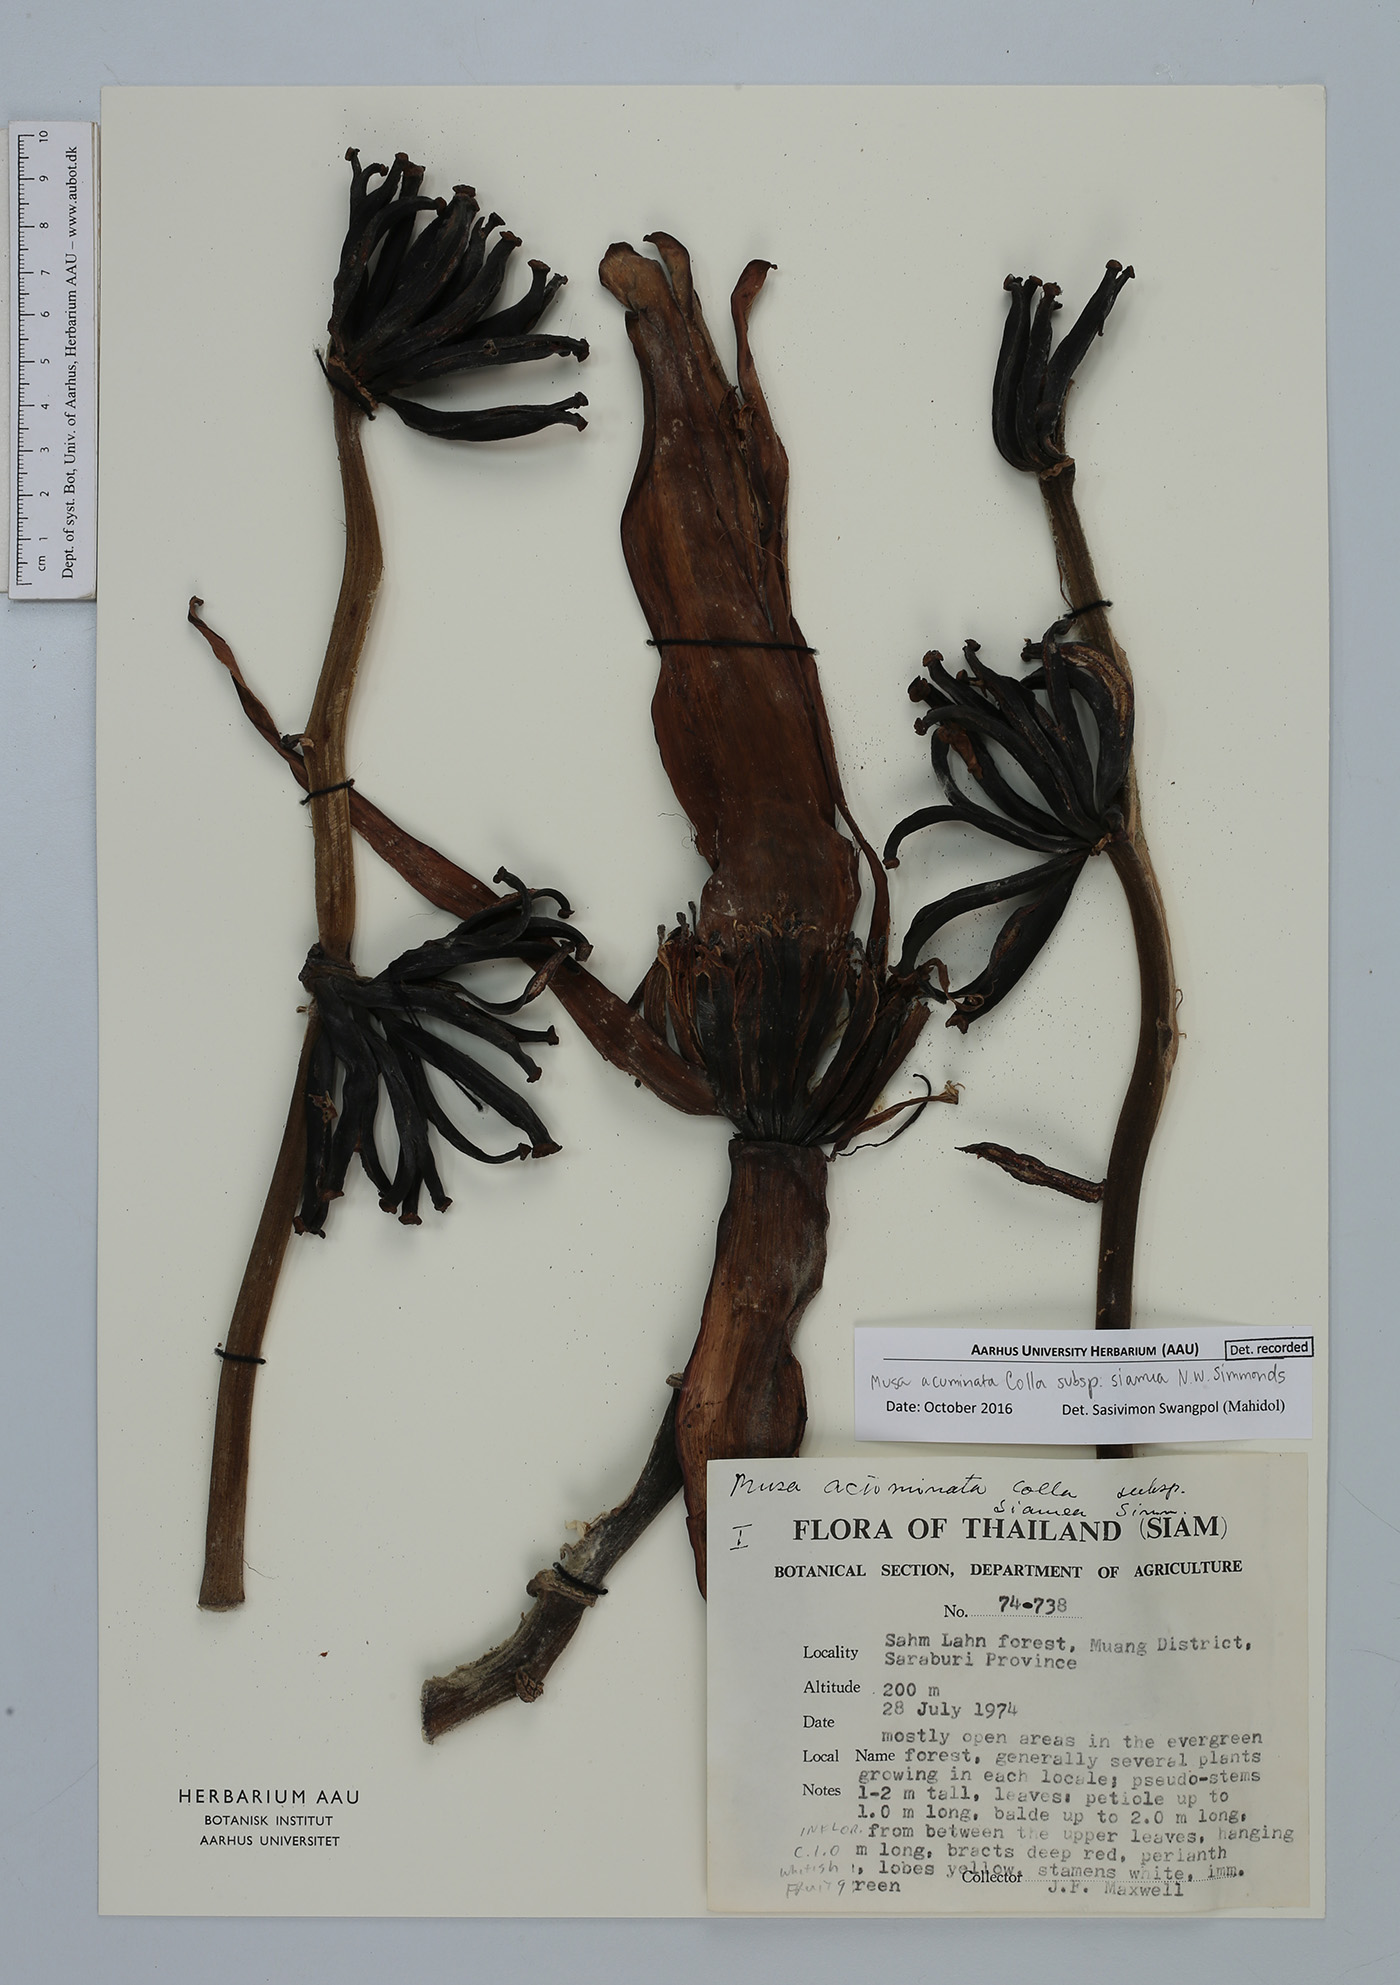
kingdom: Plantae
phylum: Tracheophyta
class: Liliopsida
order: Zingiberales
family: Musaceae
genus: Musa
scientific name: Musa acuminata
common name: Edible banana
